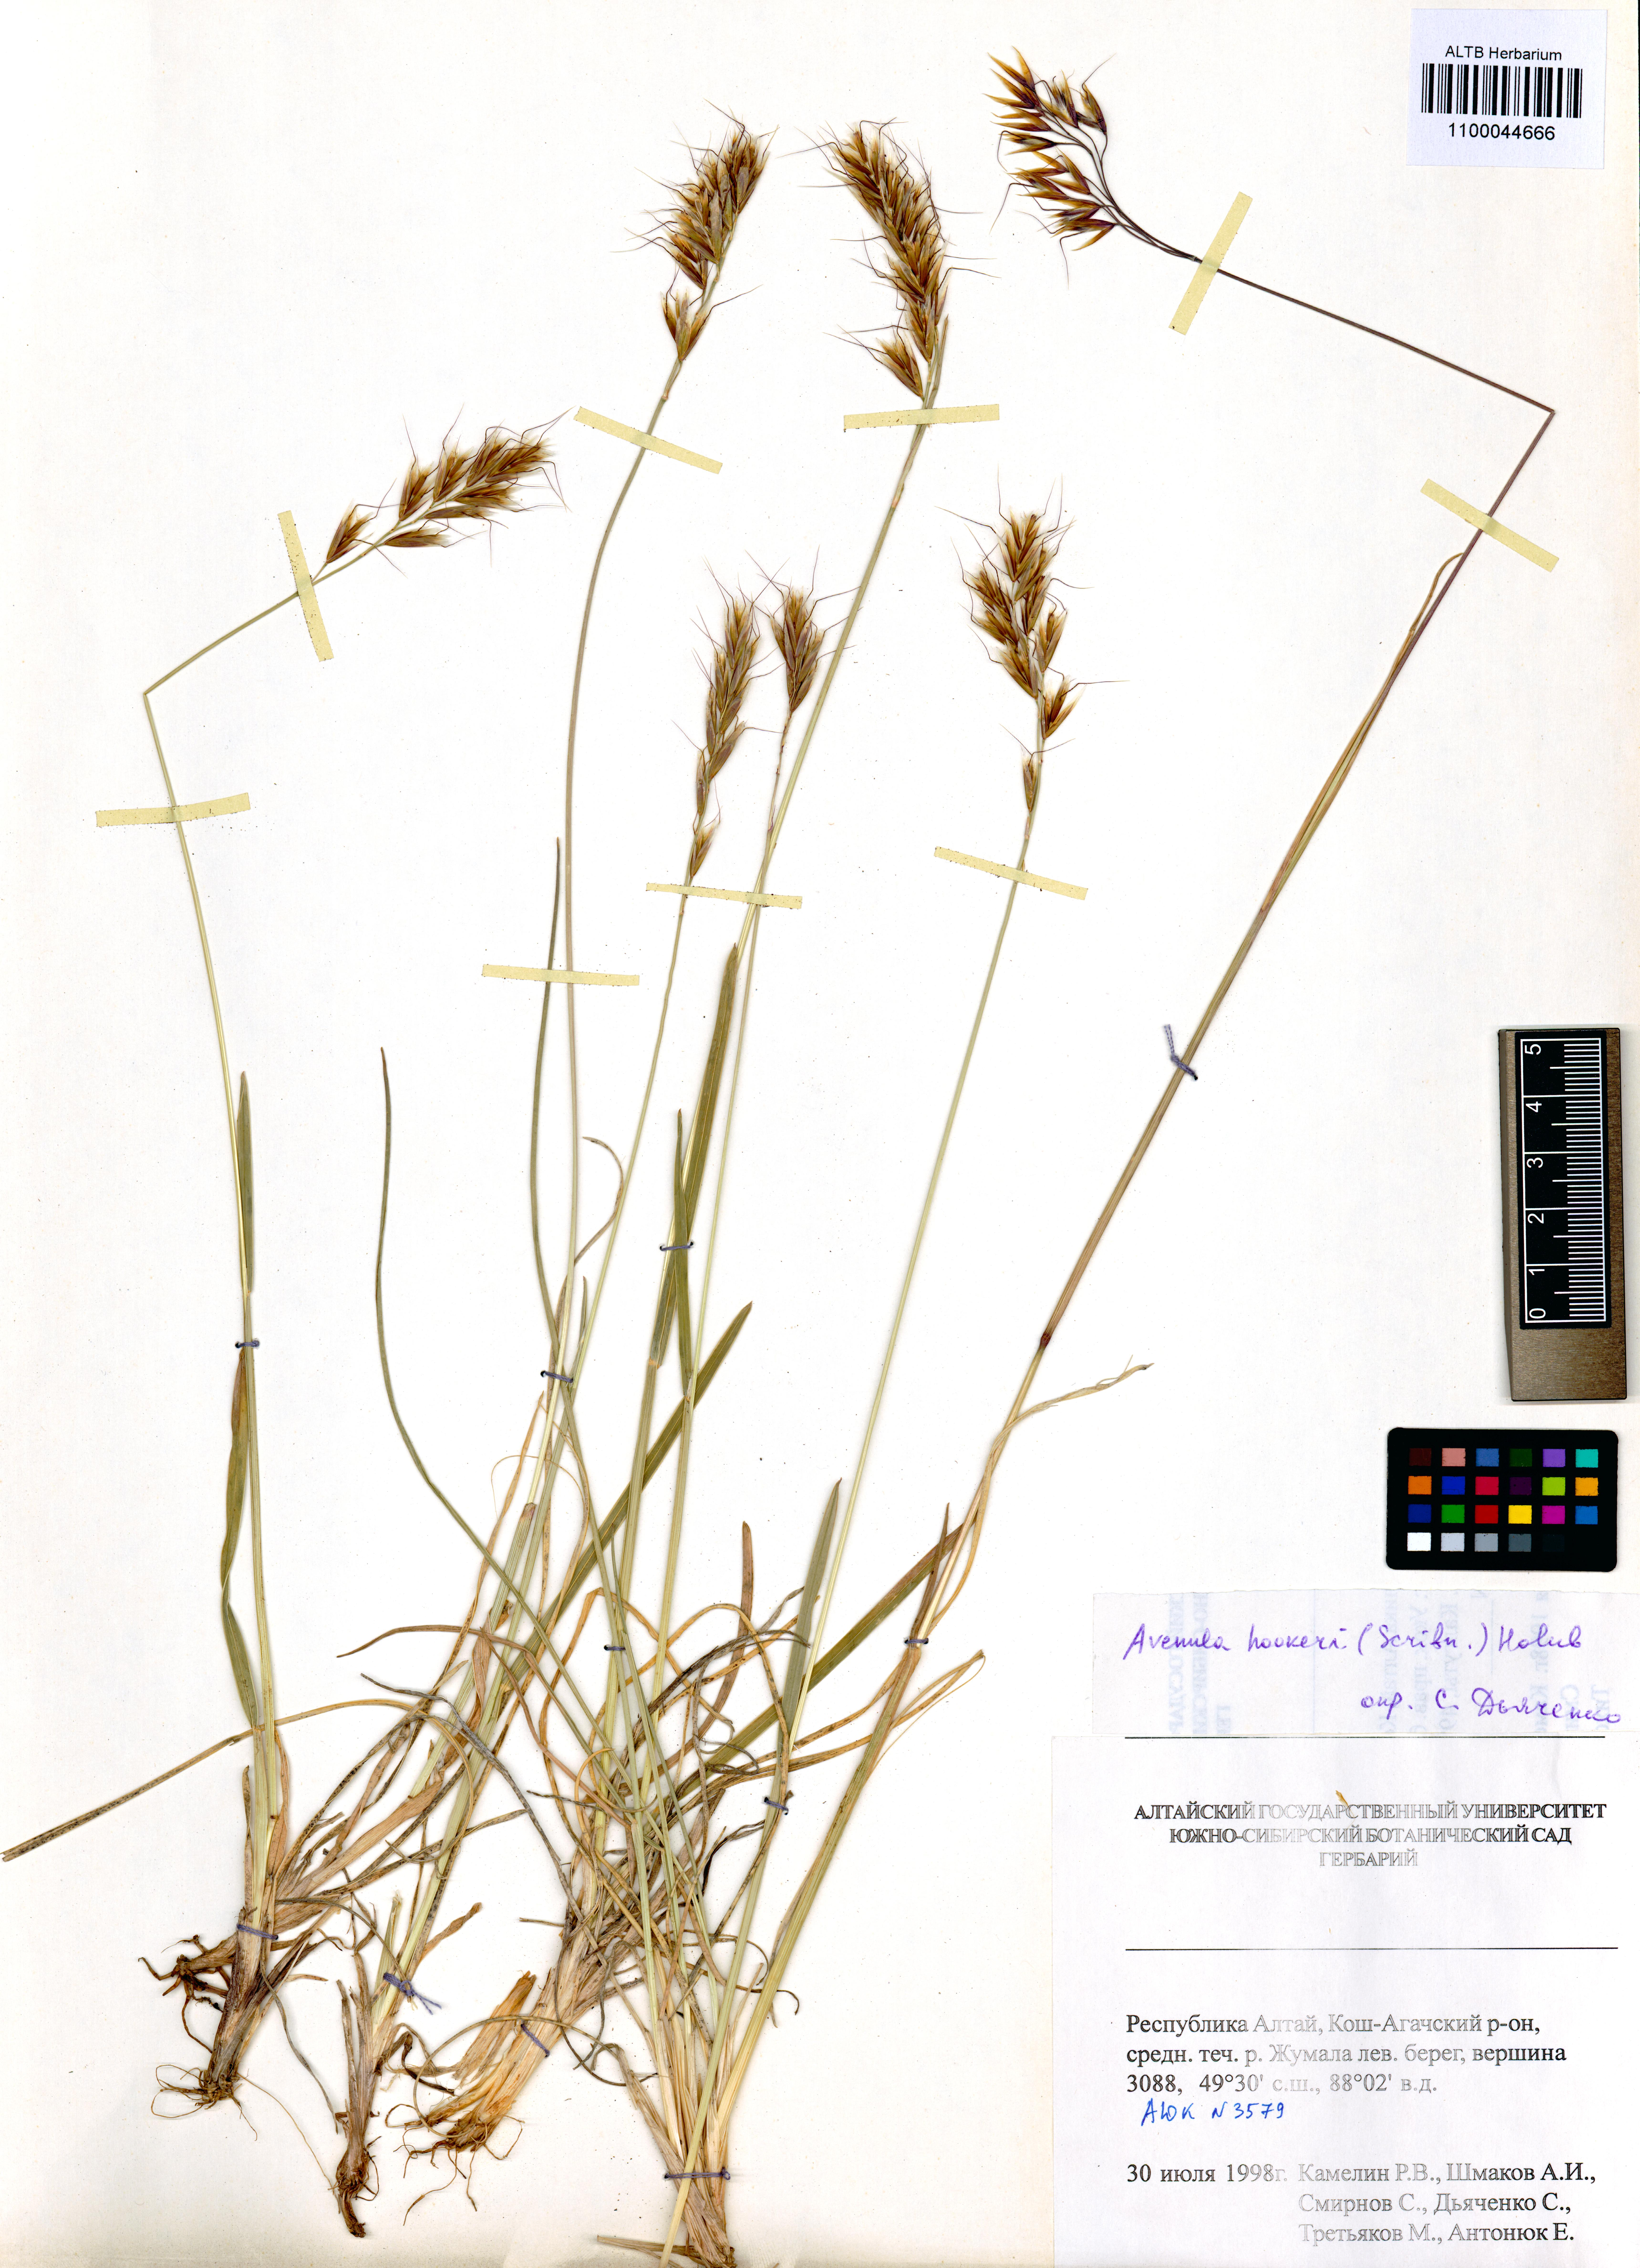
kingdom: Plantae
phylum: Tracheophyta
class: Liliopsida
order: Poales
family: Poaceae
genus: Helictochloa
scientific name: Helictochloa hookeri
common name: Hooker's alpine oatgrass
